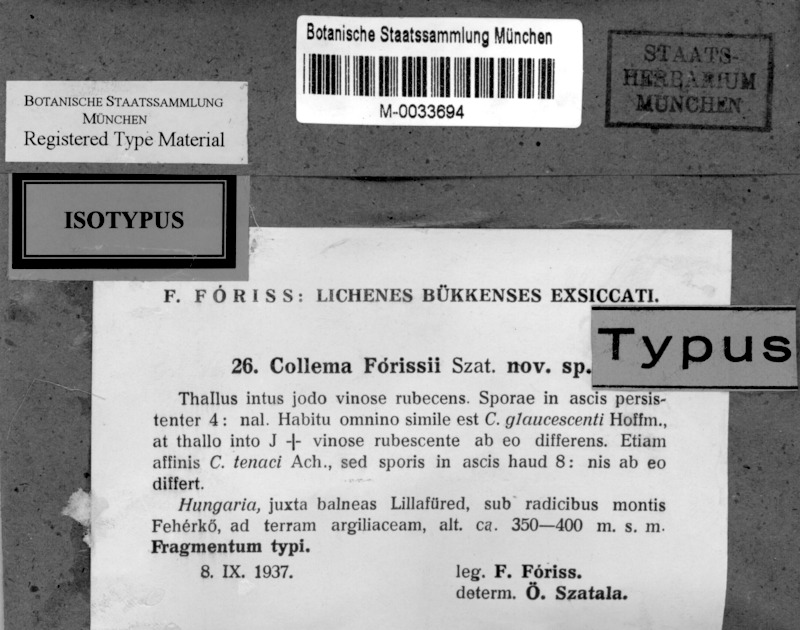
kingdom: Fungi
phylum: Ascomycota
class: Lecanoromycetes
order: Peltigerales
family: Collemataceae
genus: Enchylium
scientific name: Enchylium limosum
